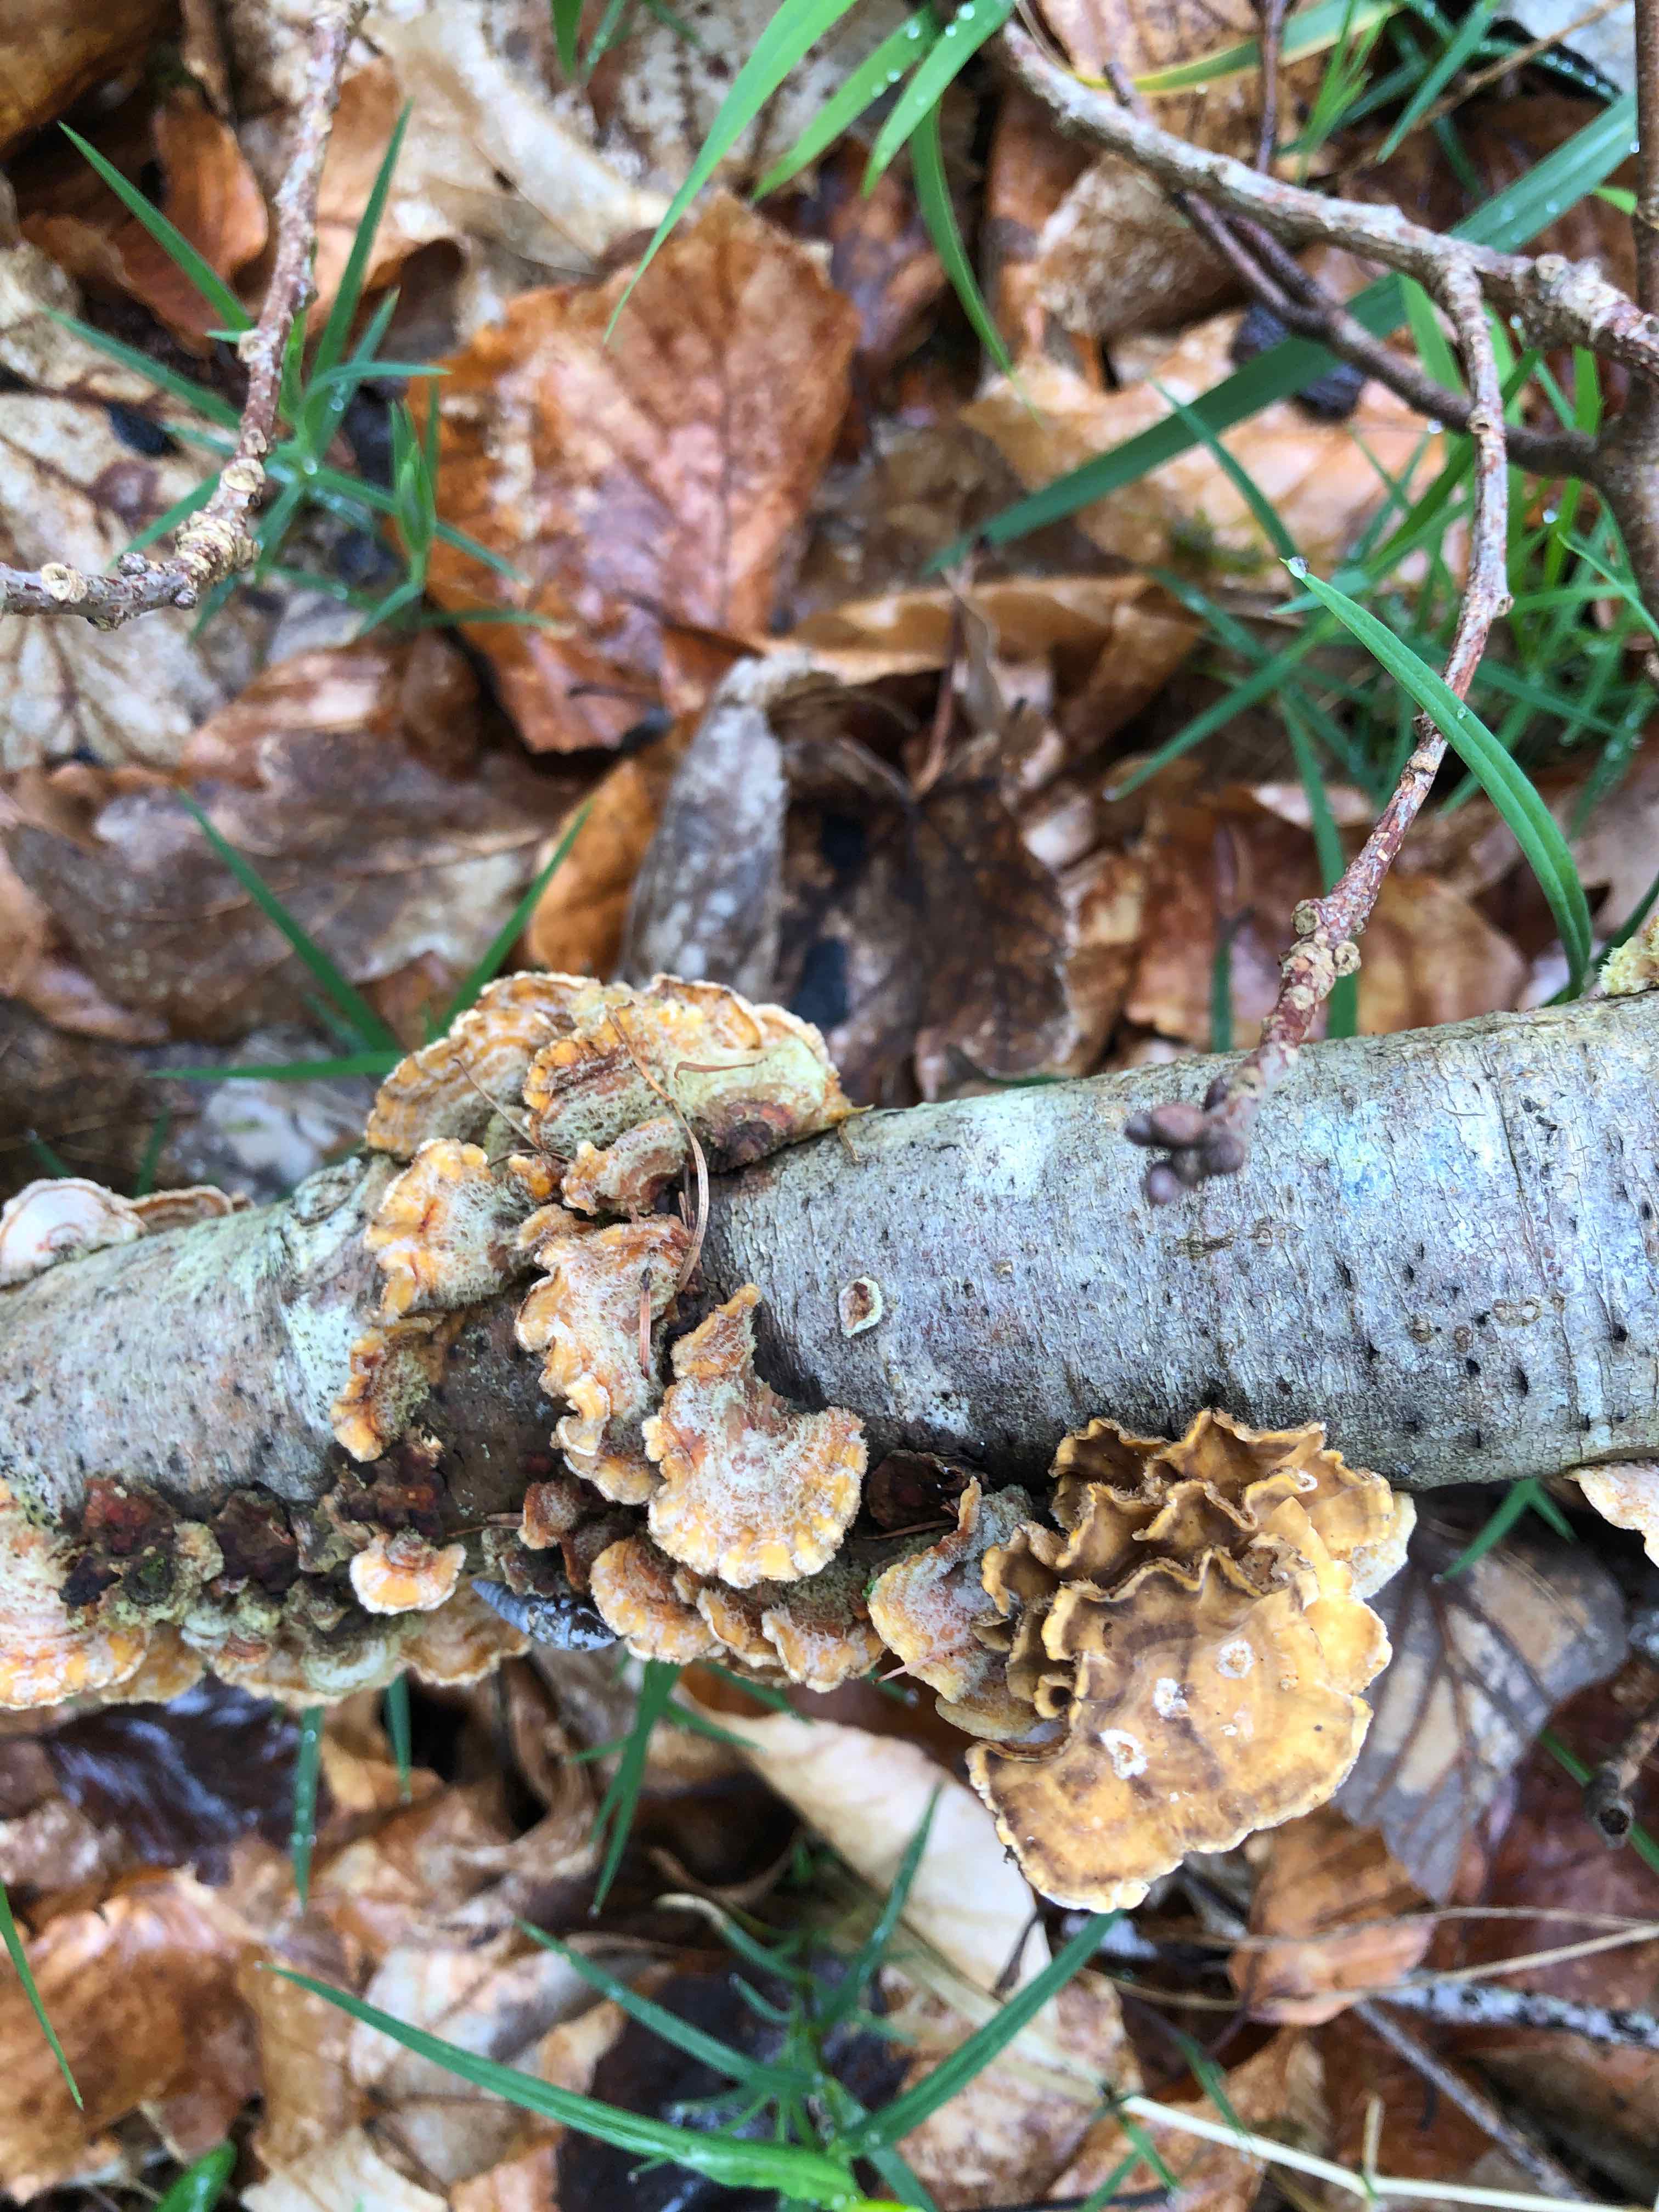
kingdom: Fungi
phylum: Basidiomycota
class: Agaricomycetes
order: Russulales
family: Stereaceae
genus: Stereum
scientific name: Stereum hirsutum
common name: håret lædersvamp
